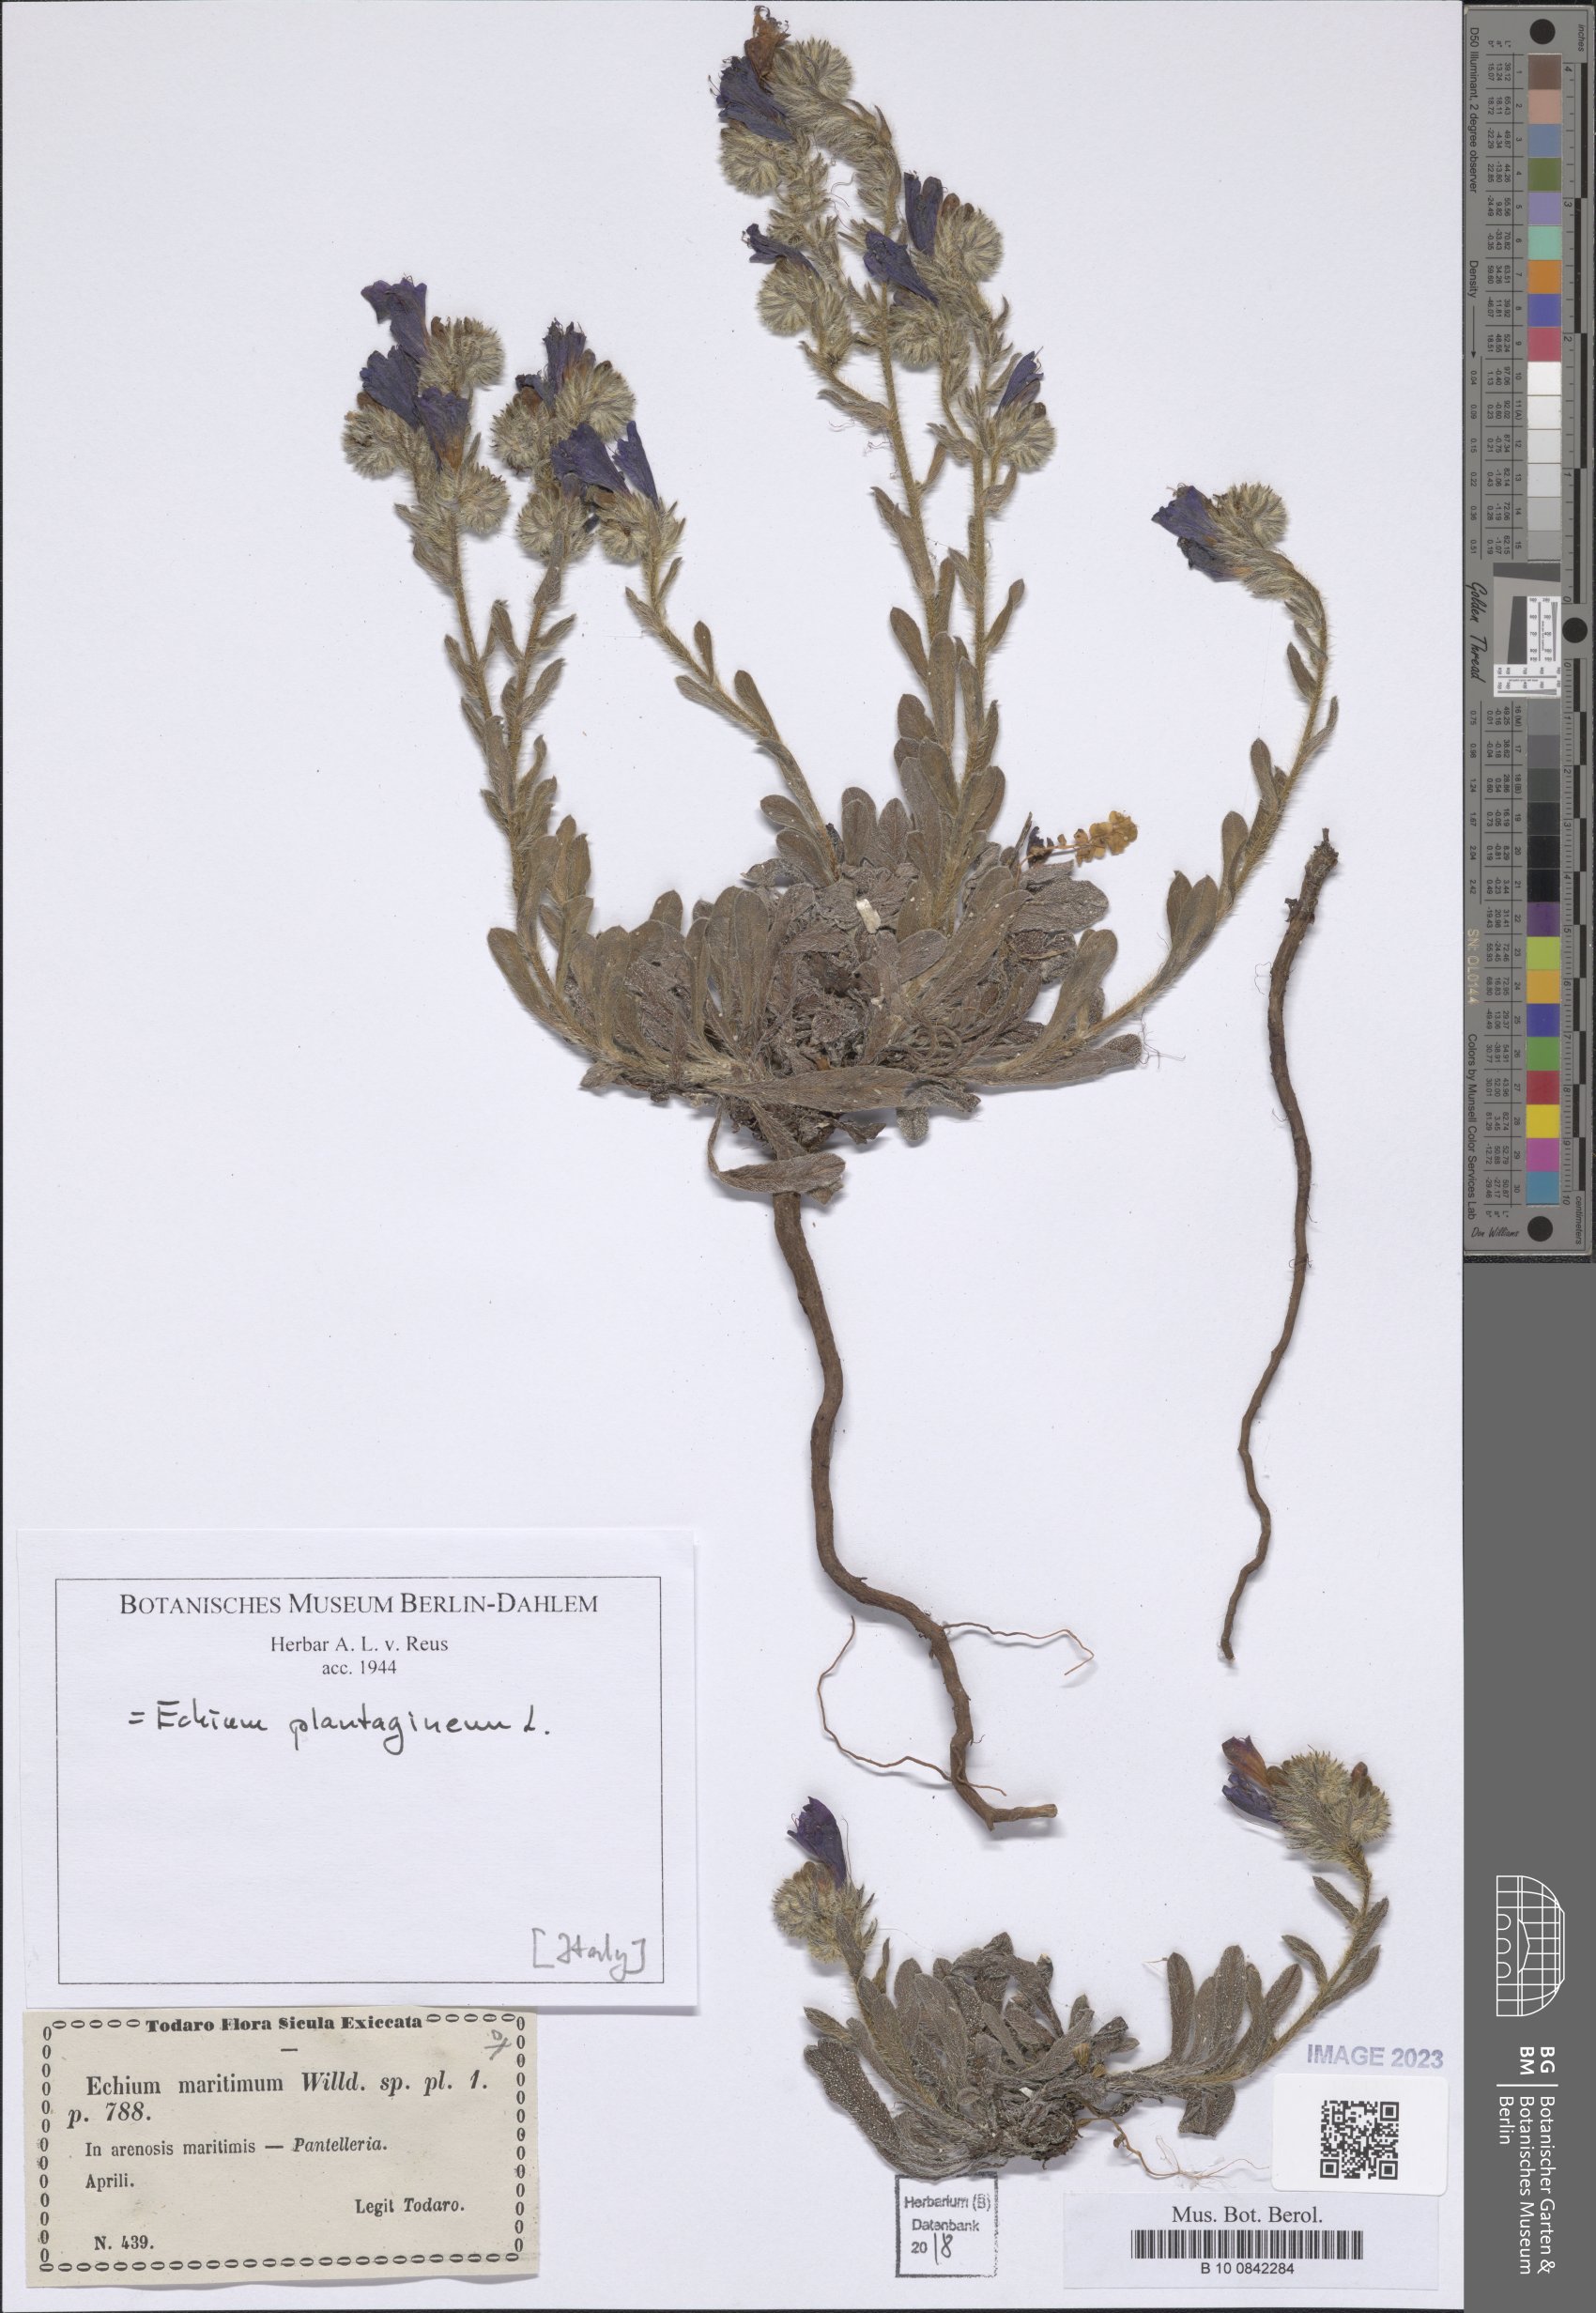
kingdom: Plantae
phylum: Tracheophyta
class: Magnoliopsida
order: Boraginales
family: Boraginaceae
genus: Echium
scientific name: Echium plantagineum
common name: Purple viper's-bugloss
